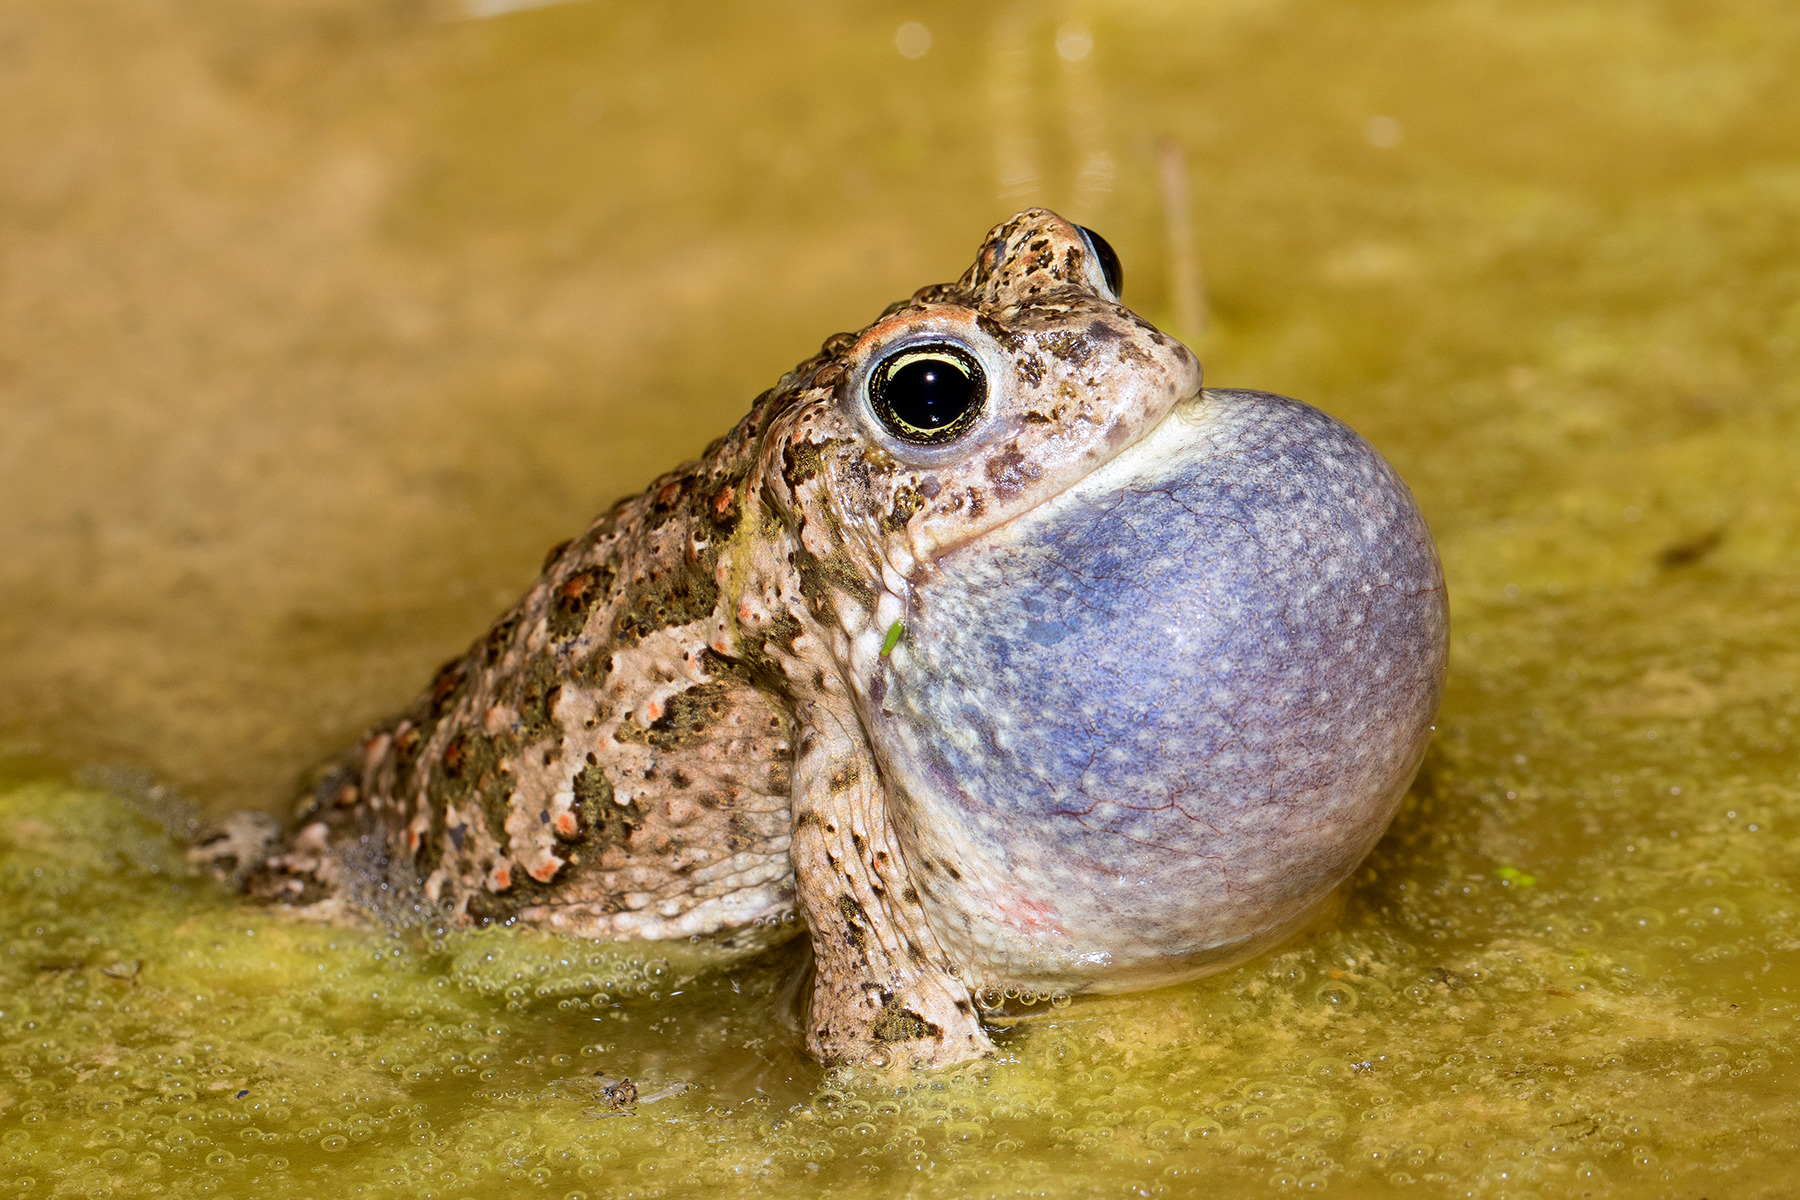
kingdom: Animalia
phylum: Chordata
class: Amphibia
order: Anura
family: Bufonidae
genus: Epidalea
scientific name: Epidalea calamita
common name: Strandtudse
